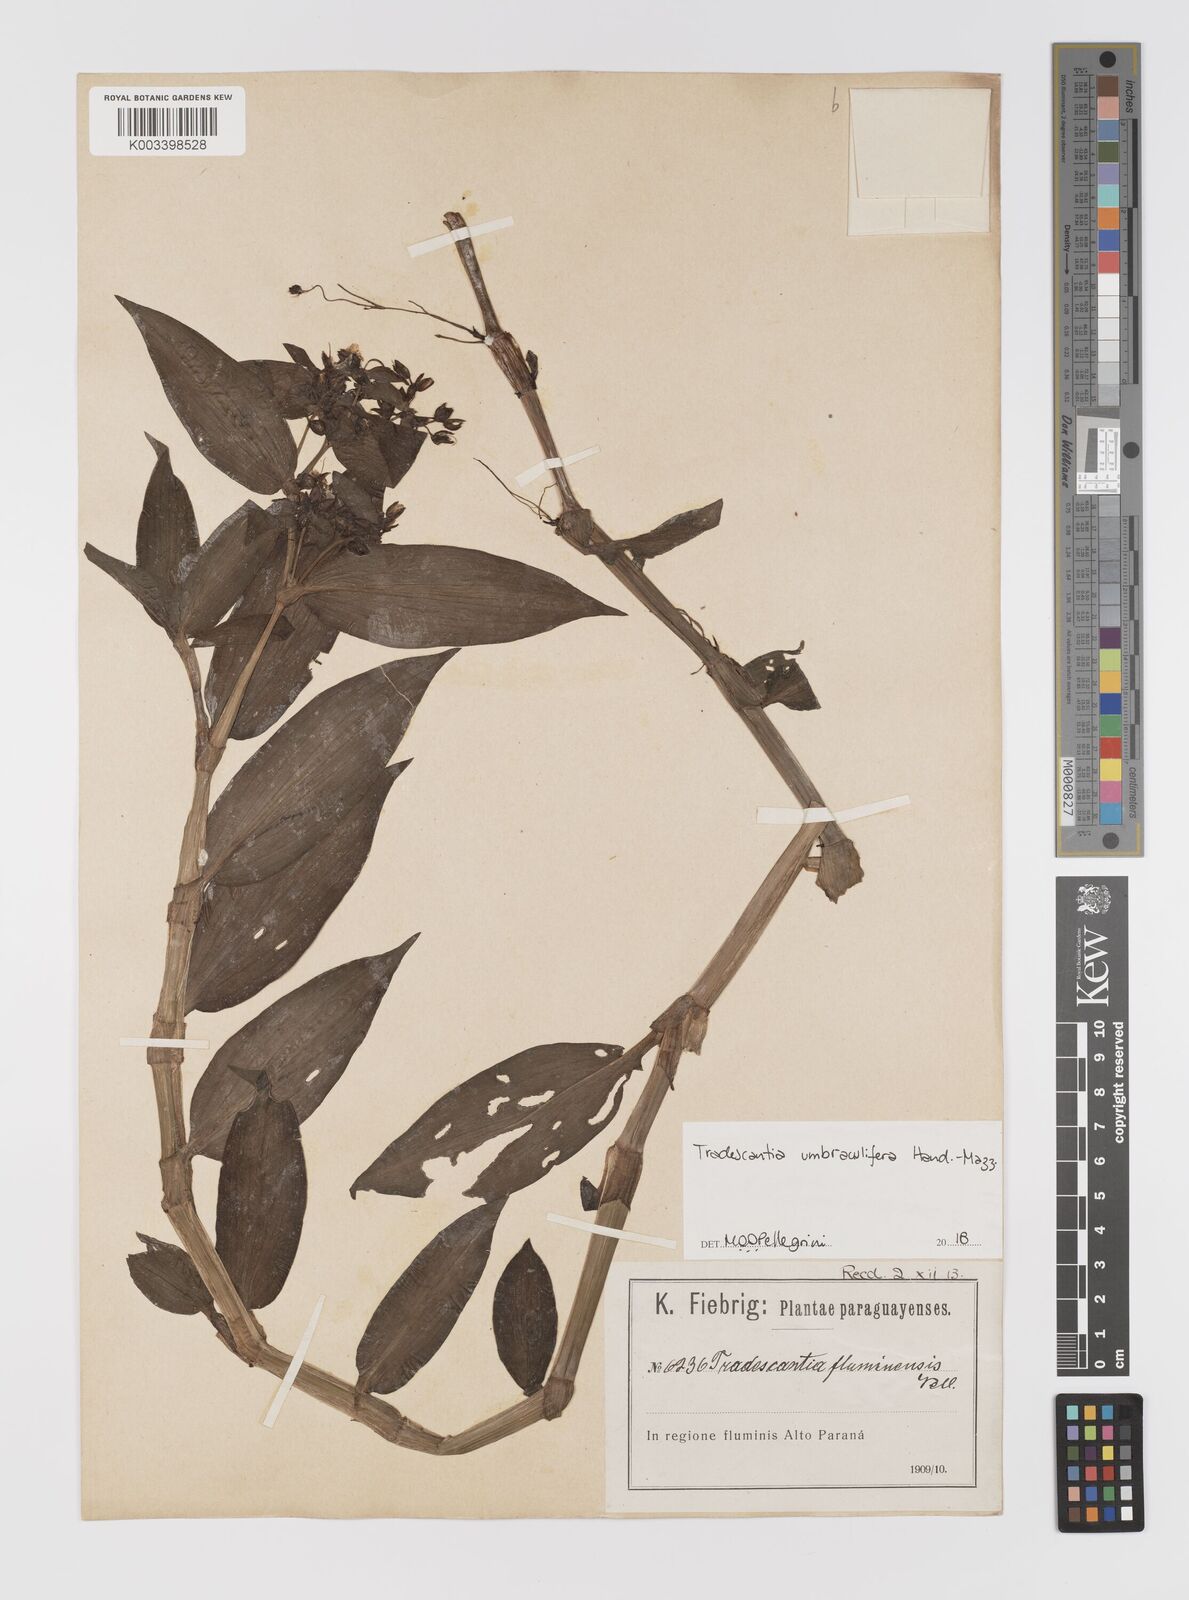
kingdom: Plantae
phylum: Tracheophyta
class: Liliopsida
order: Commelinales
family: Commelinaceae
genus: Tradescantia
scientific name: Tradescantia umbraculifera
